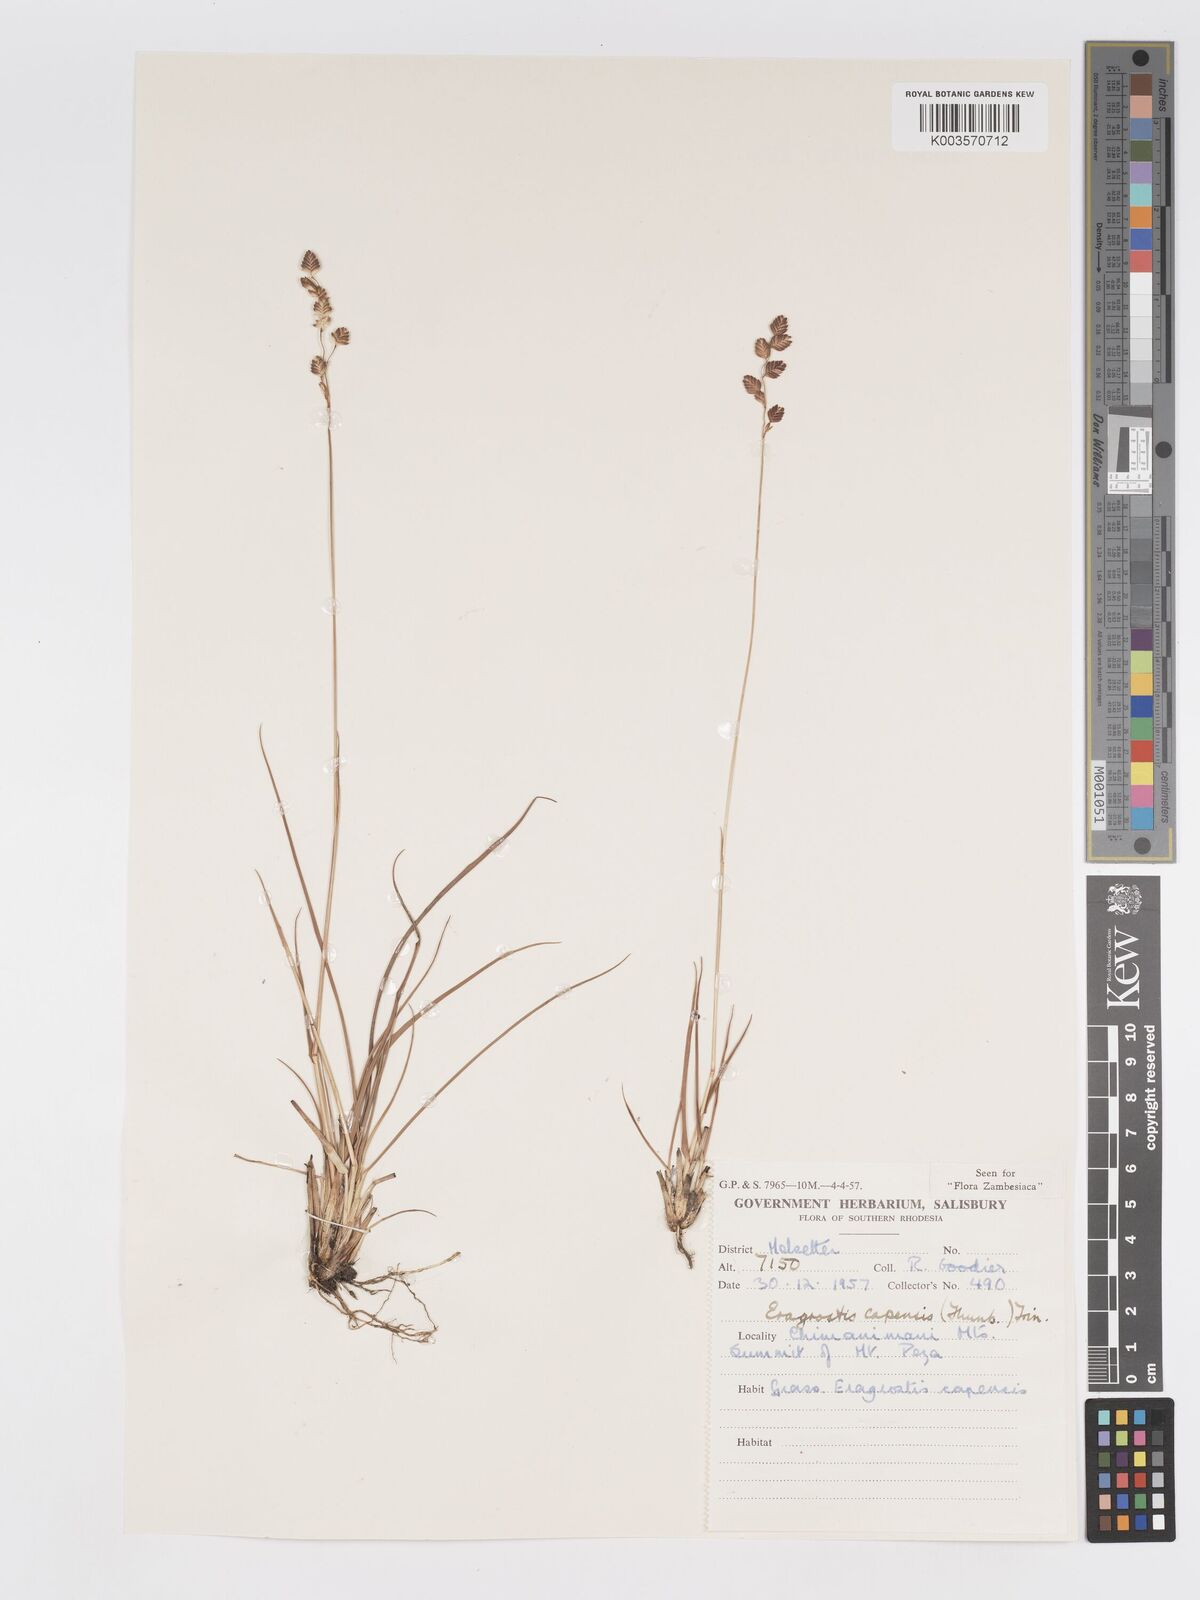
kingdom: Plantae
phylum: Tracheophyta
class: Liliopsida
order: Poales
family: Poaceae
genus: Eragrostis
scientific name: Eragrostis capensis
